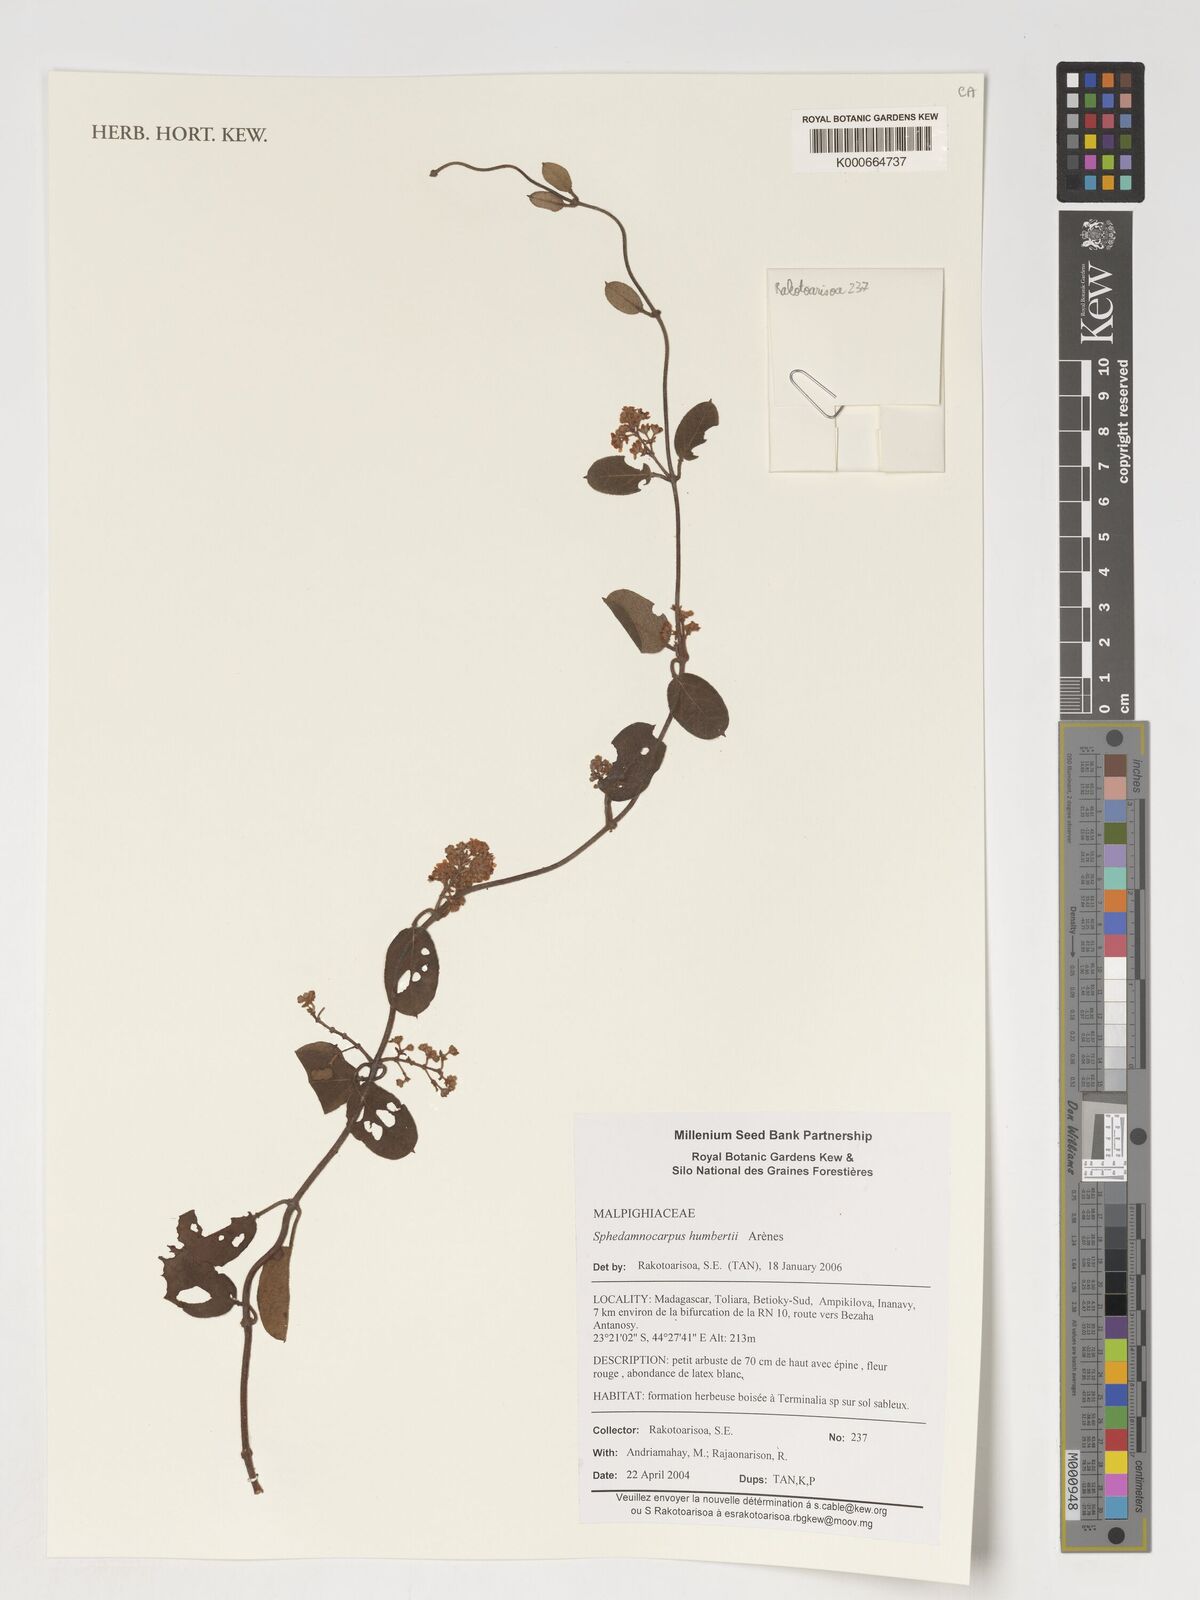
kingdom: Plantae
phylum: Tracheophyta
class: Magnoliopsida
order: Malpighiales
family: Malpighiaceae
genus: Sphedamnocarpus
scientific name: Sphedamnocarpus humbertii
